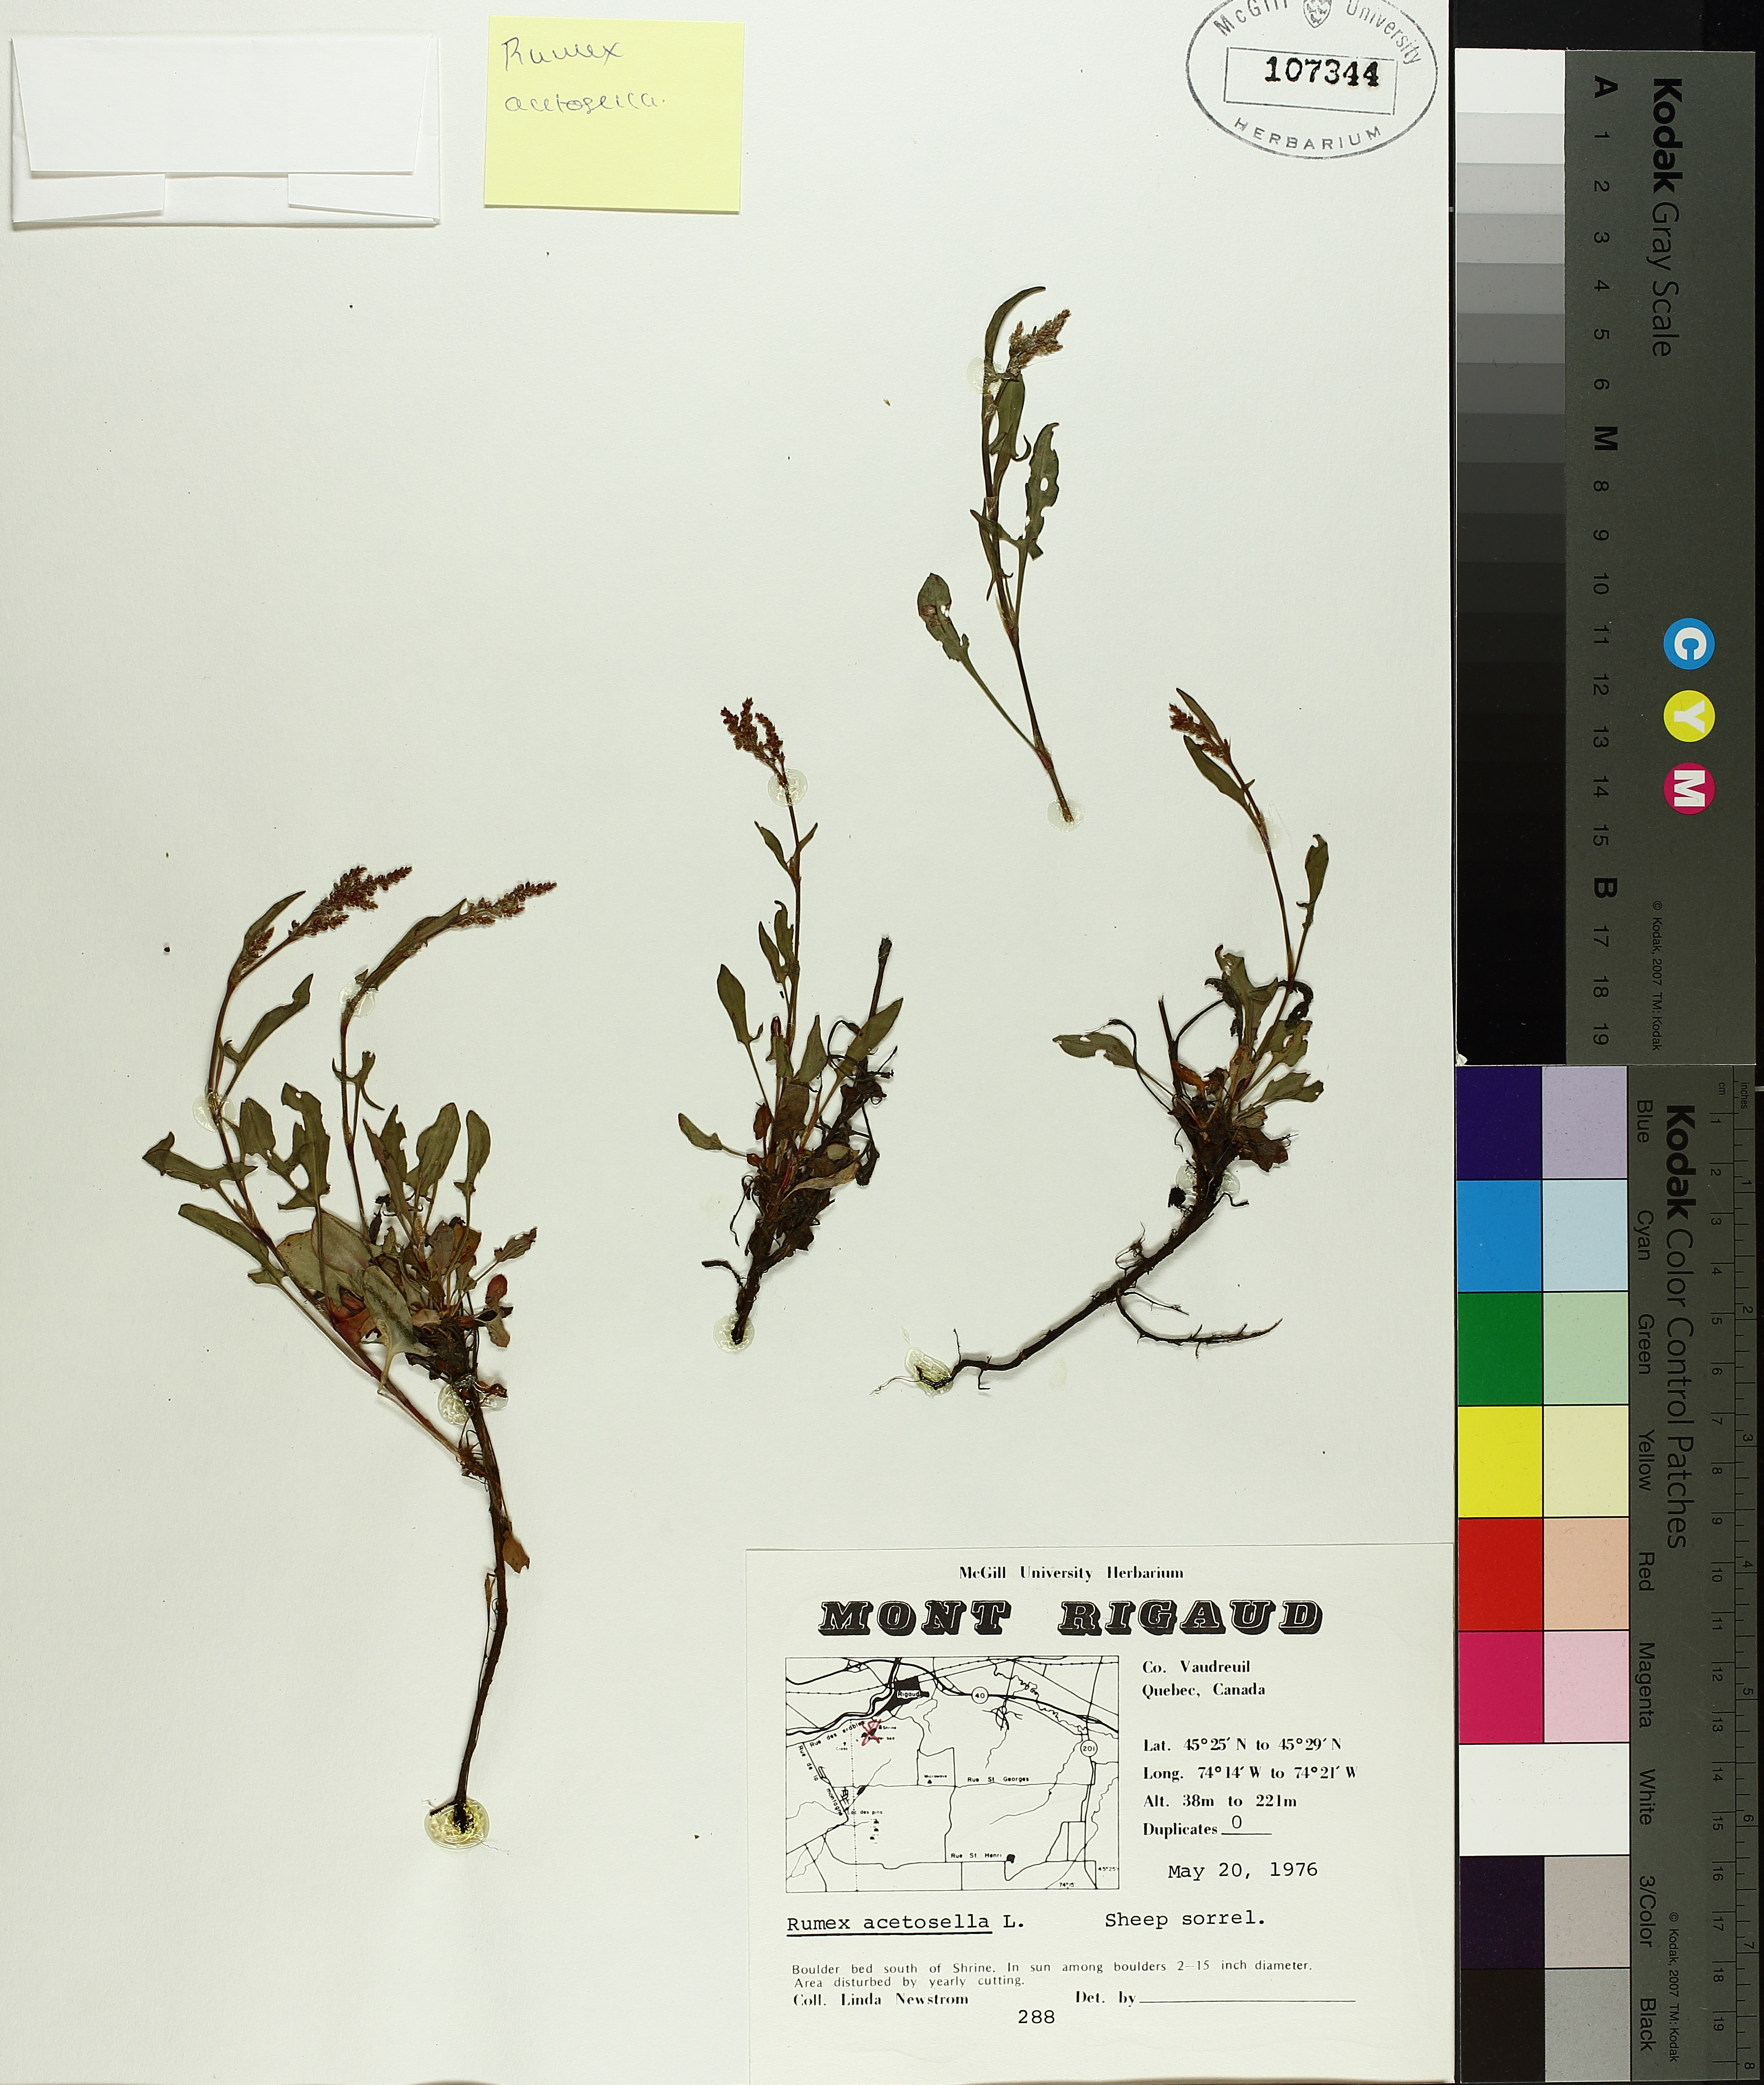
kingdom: Plantae
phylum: Tracheophyta
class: Magnoliopsida
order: Caryophyllales
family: Polygonaceae
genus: Rumex
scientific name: Rumex acetosella
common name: Common sheep sorrel
